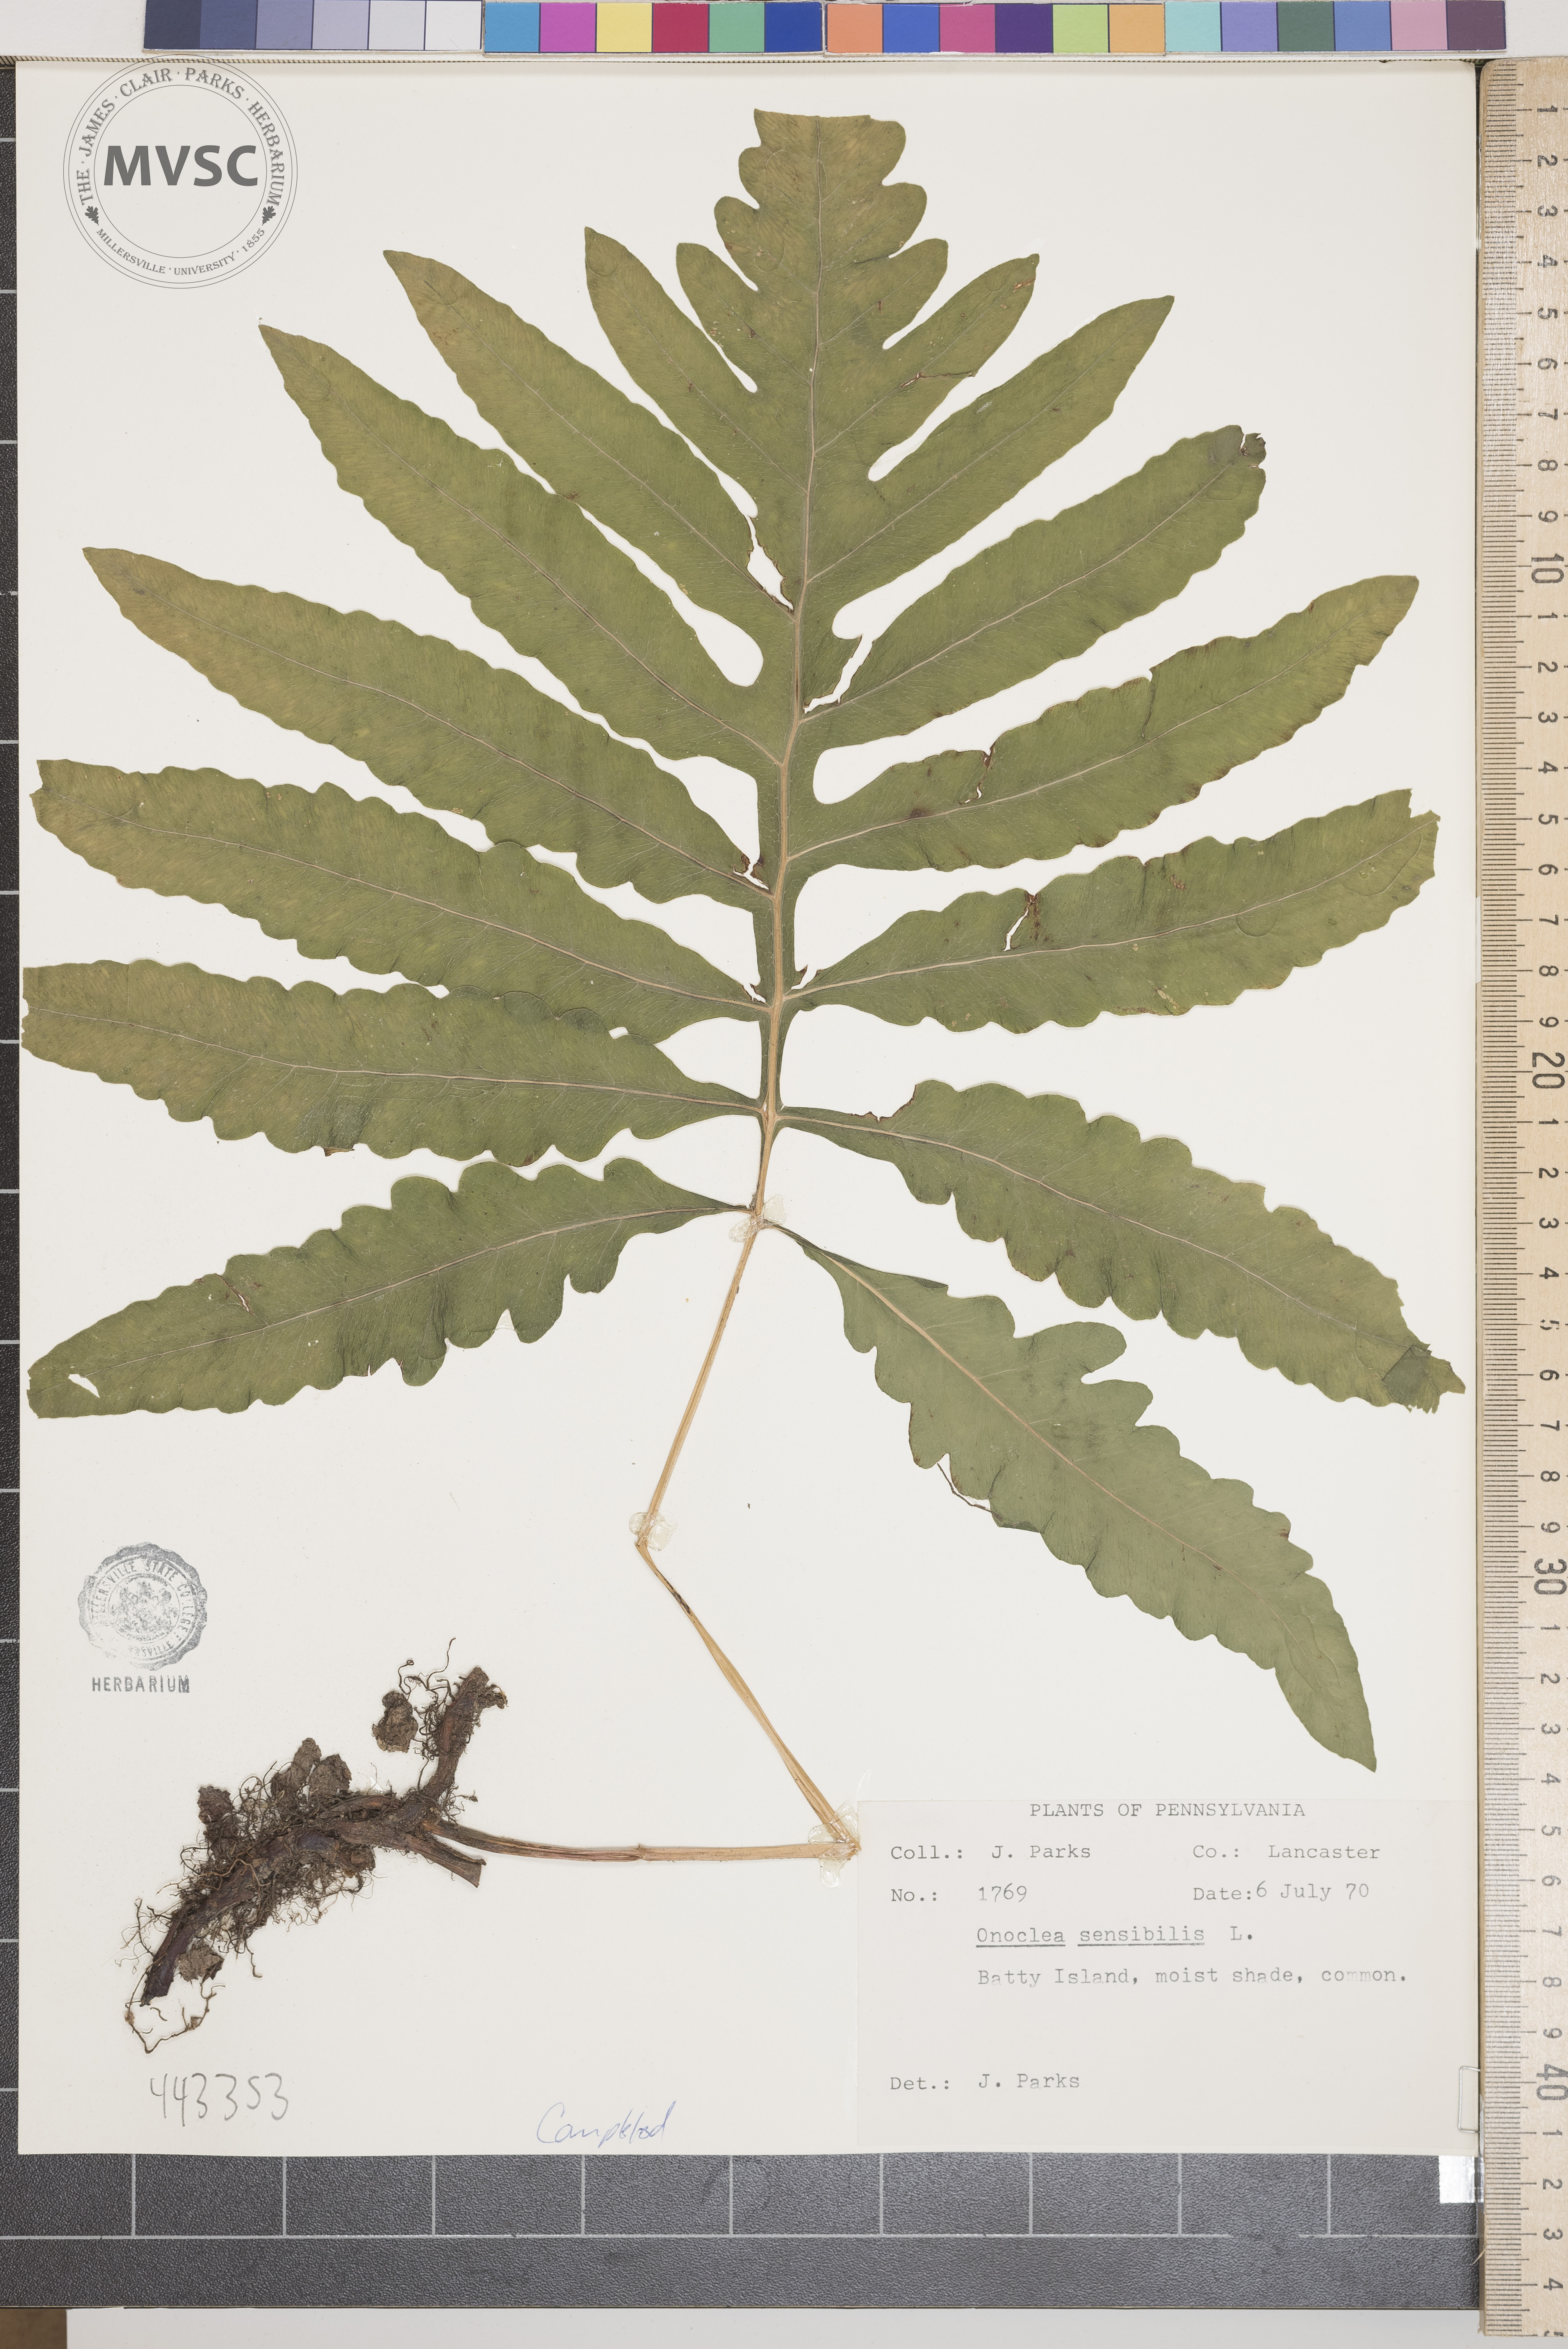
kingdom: Plantae
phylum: Tracheophyta
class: Polypodiopsida
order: Polypodiales
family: Onocleaceae
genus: Onoclea
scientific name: Onoclea sensibilis
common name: Sensitive fern
